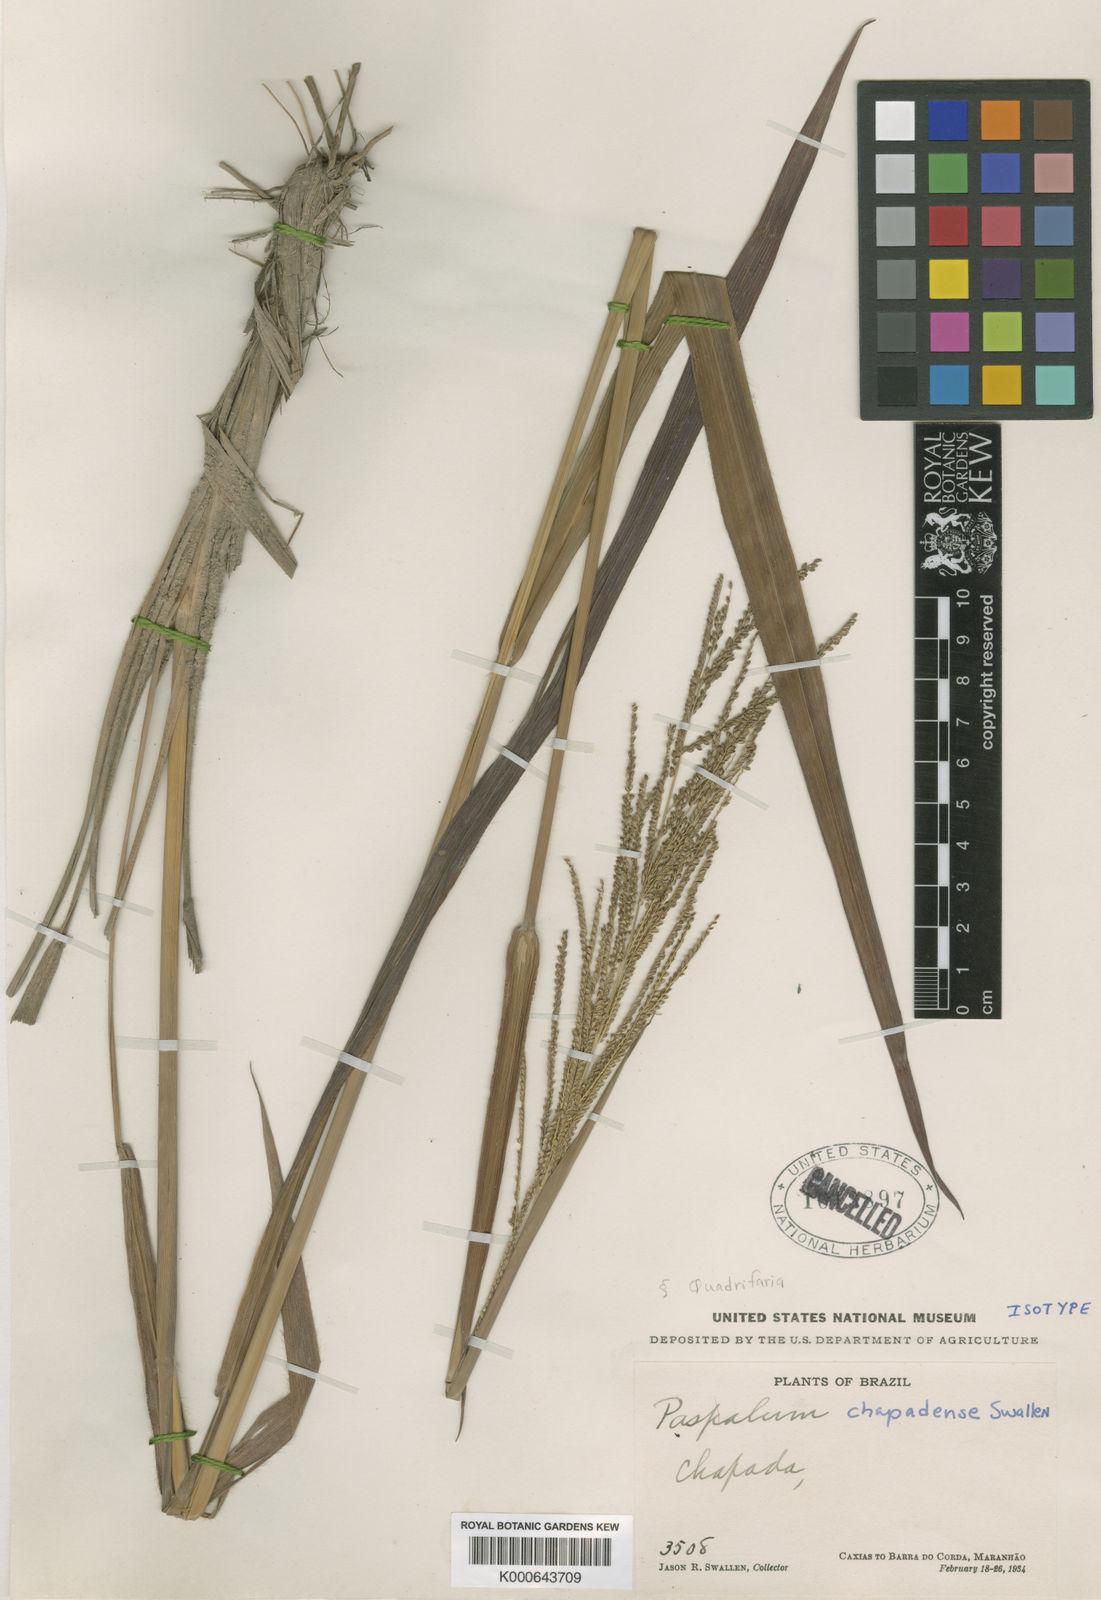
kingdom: Plantae
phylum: Tracheophyta
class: Liliopsida
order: Poales
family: Poaceae
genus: Paspalum
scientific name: Paspalum coryphaeum
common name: Emperor crowngrass
